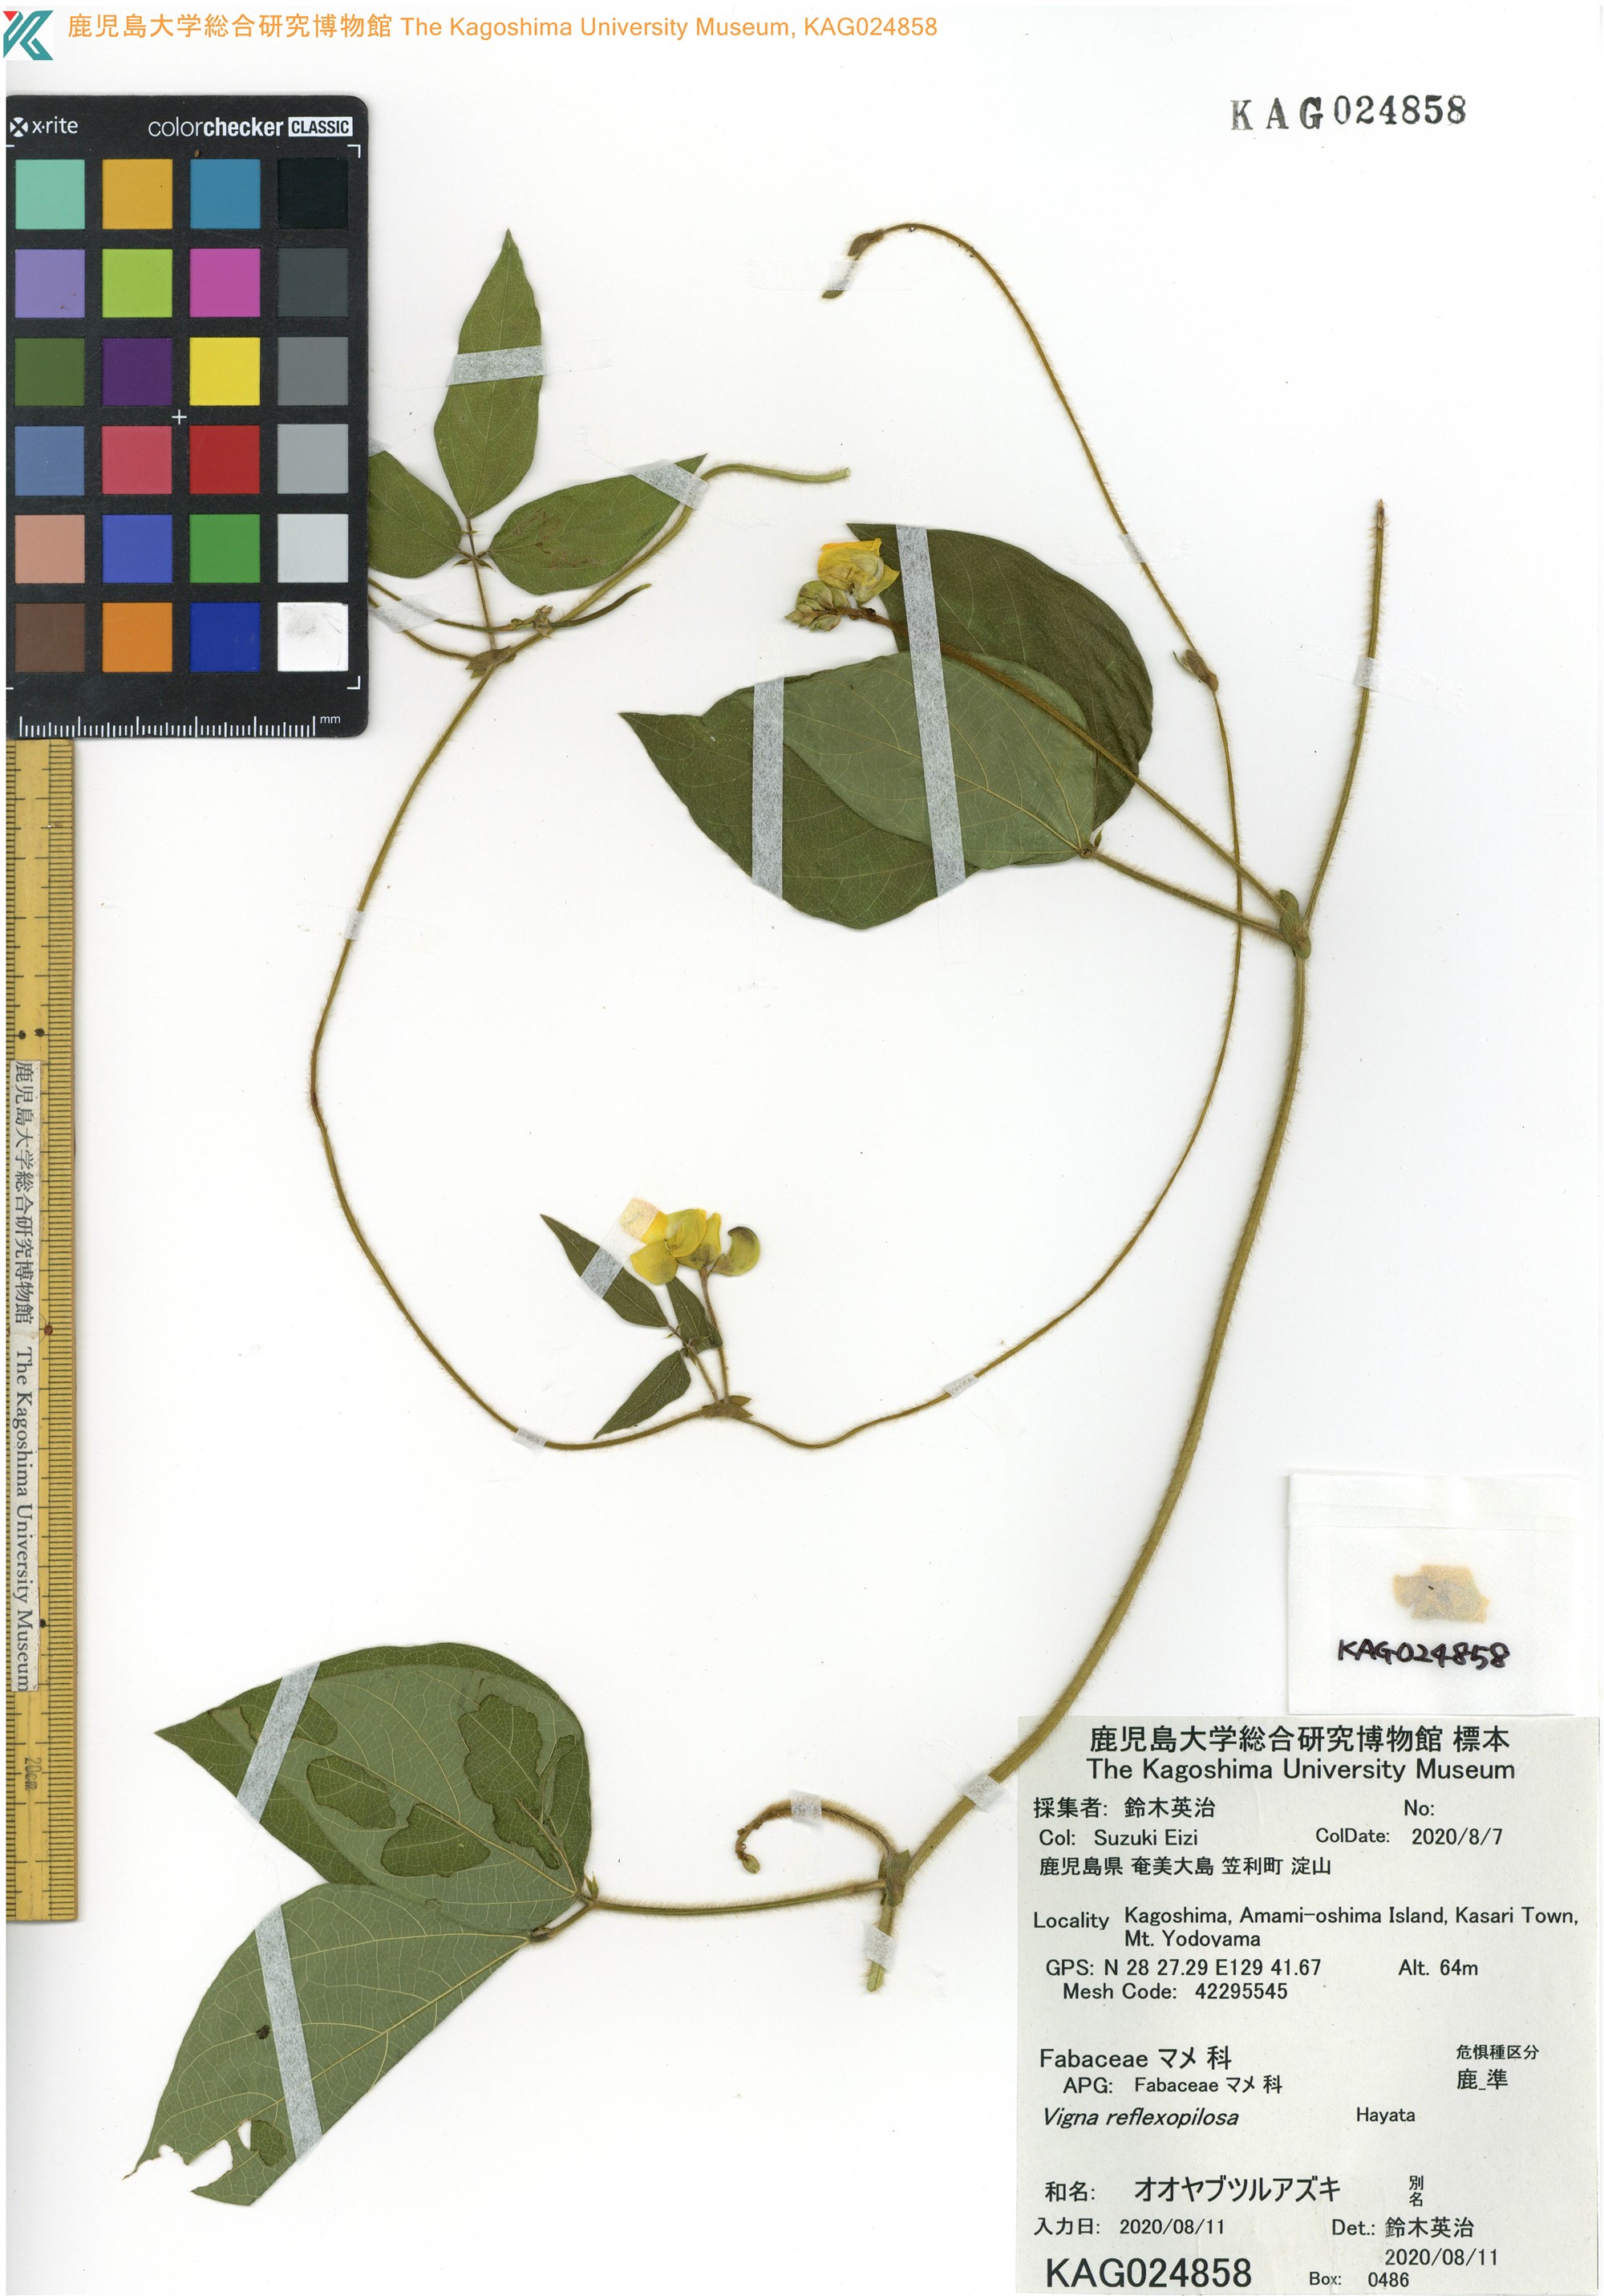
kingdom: Plantae
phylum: Tracheophyta
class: Magnoliopsida
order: Fabales
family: Fabaceae
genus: Vigna
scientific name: Vigna reflexopilosa
